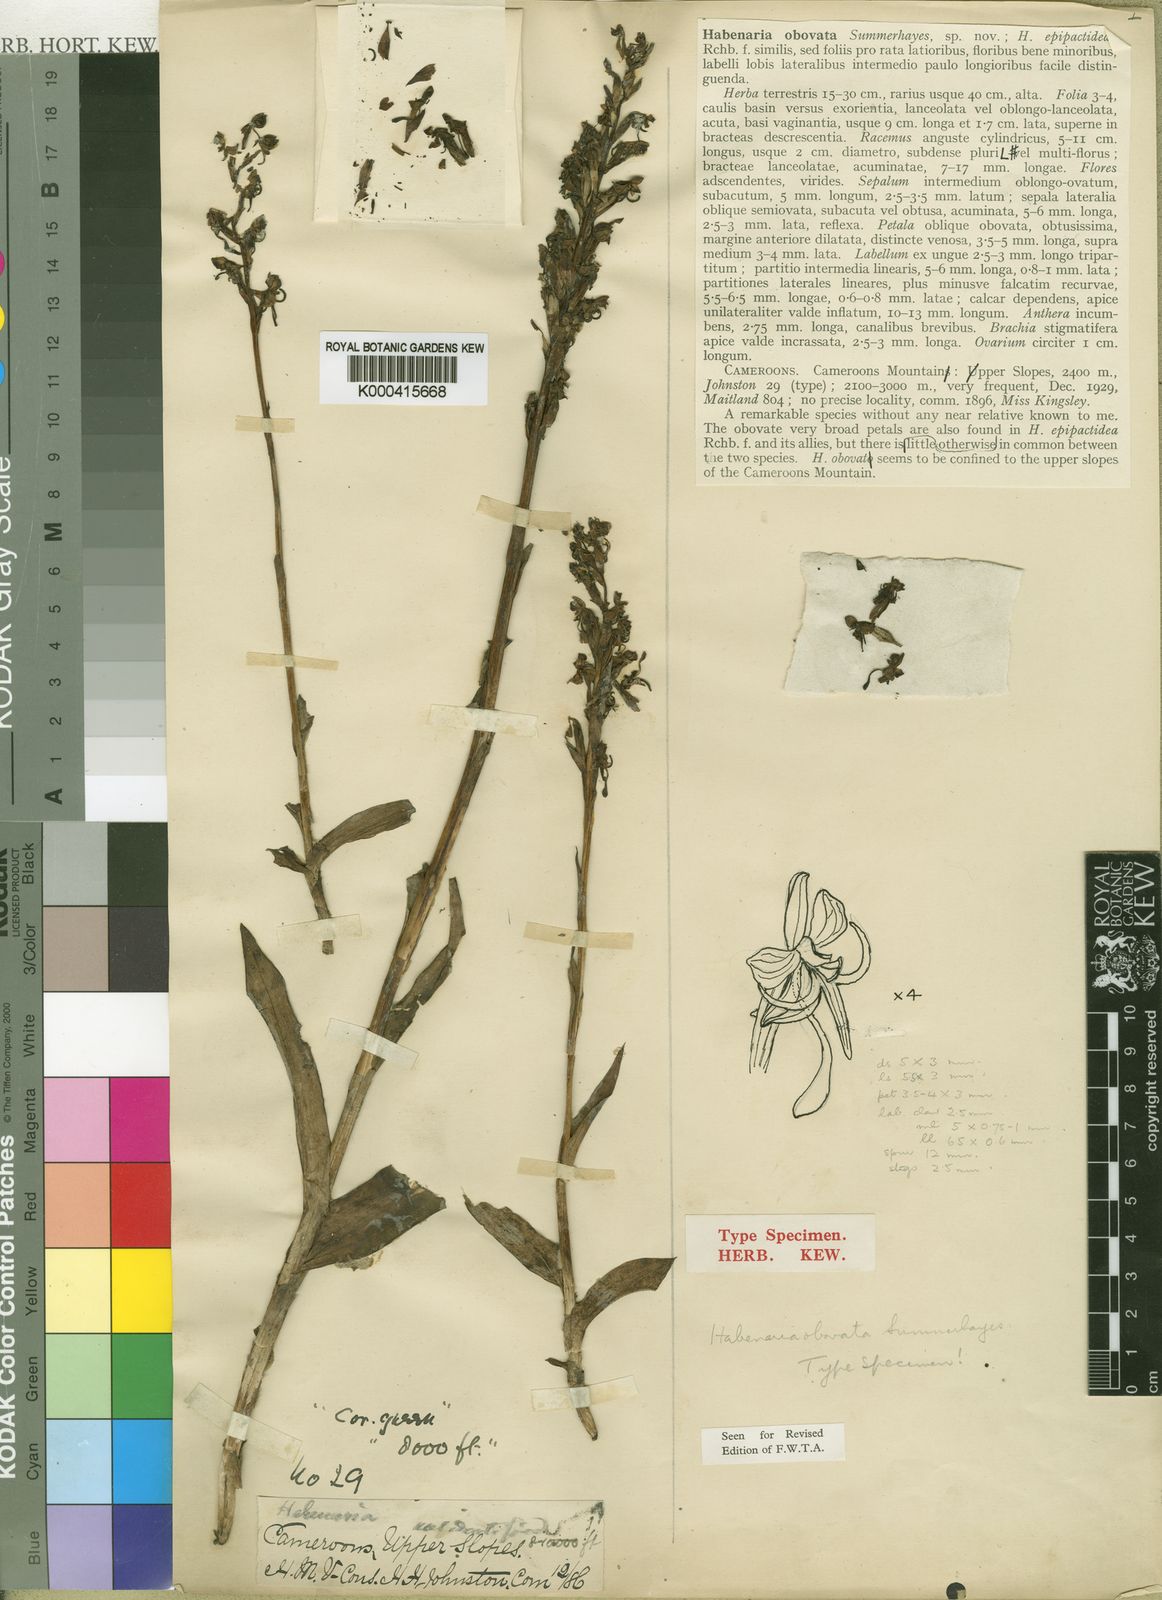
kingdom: Plantae
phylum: Tracheophyta
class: Liliopsida
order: Asparagales
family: Orchidaceae
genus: Habenaria
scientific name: Habenaria obovata
